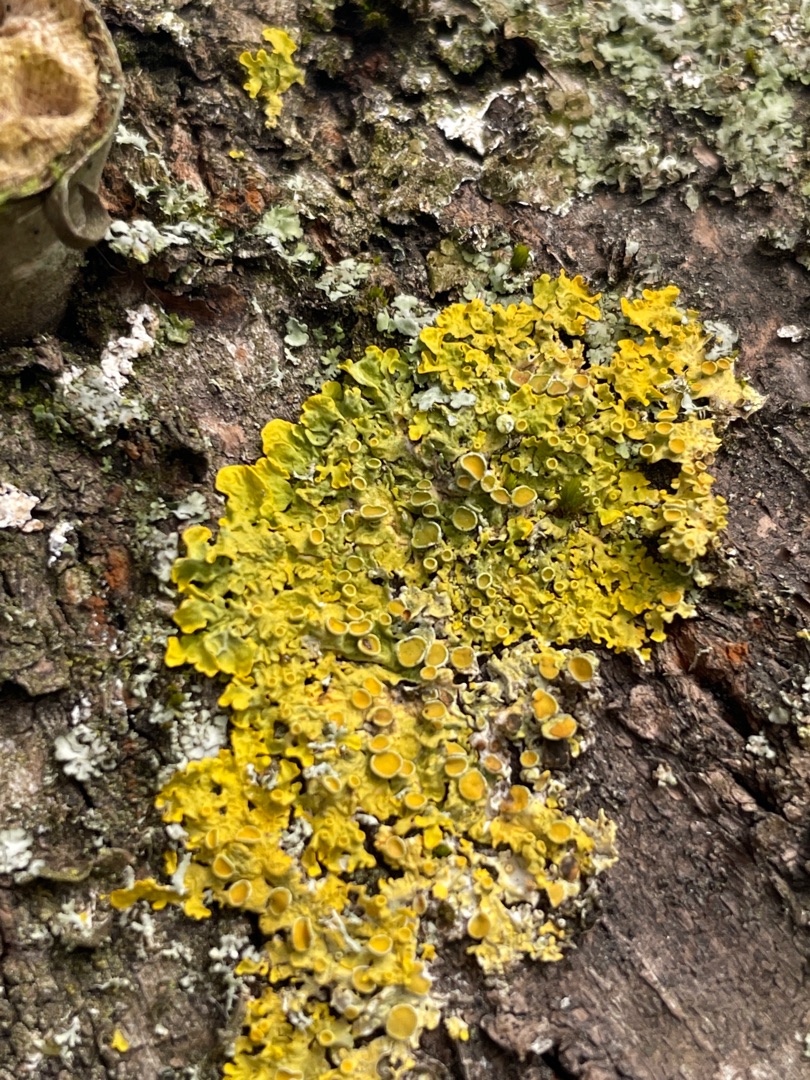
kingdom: Fungi
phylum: Ascomycota
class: Lecanoromycetes
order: Teloschistales
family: Teloschistaceae
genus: Xanthoria
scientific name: Xanthoria parietina
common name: Almindelig væggelav
